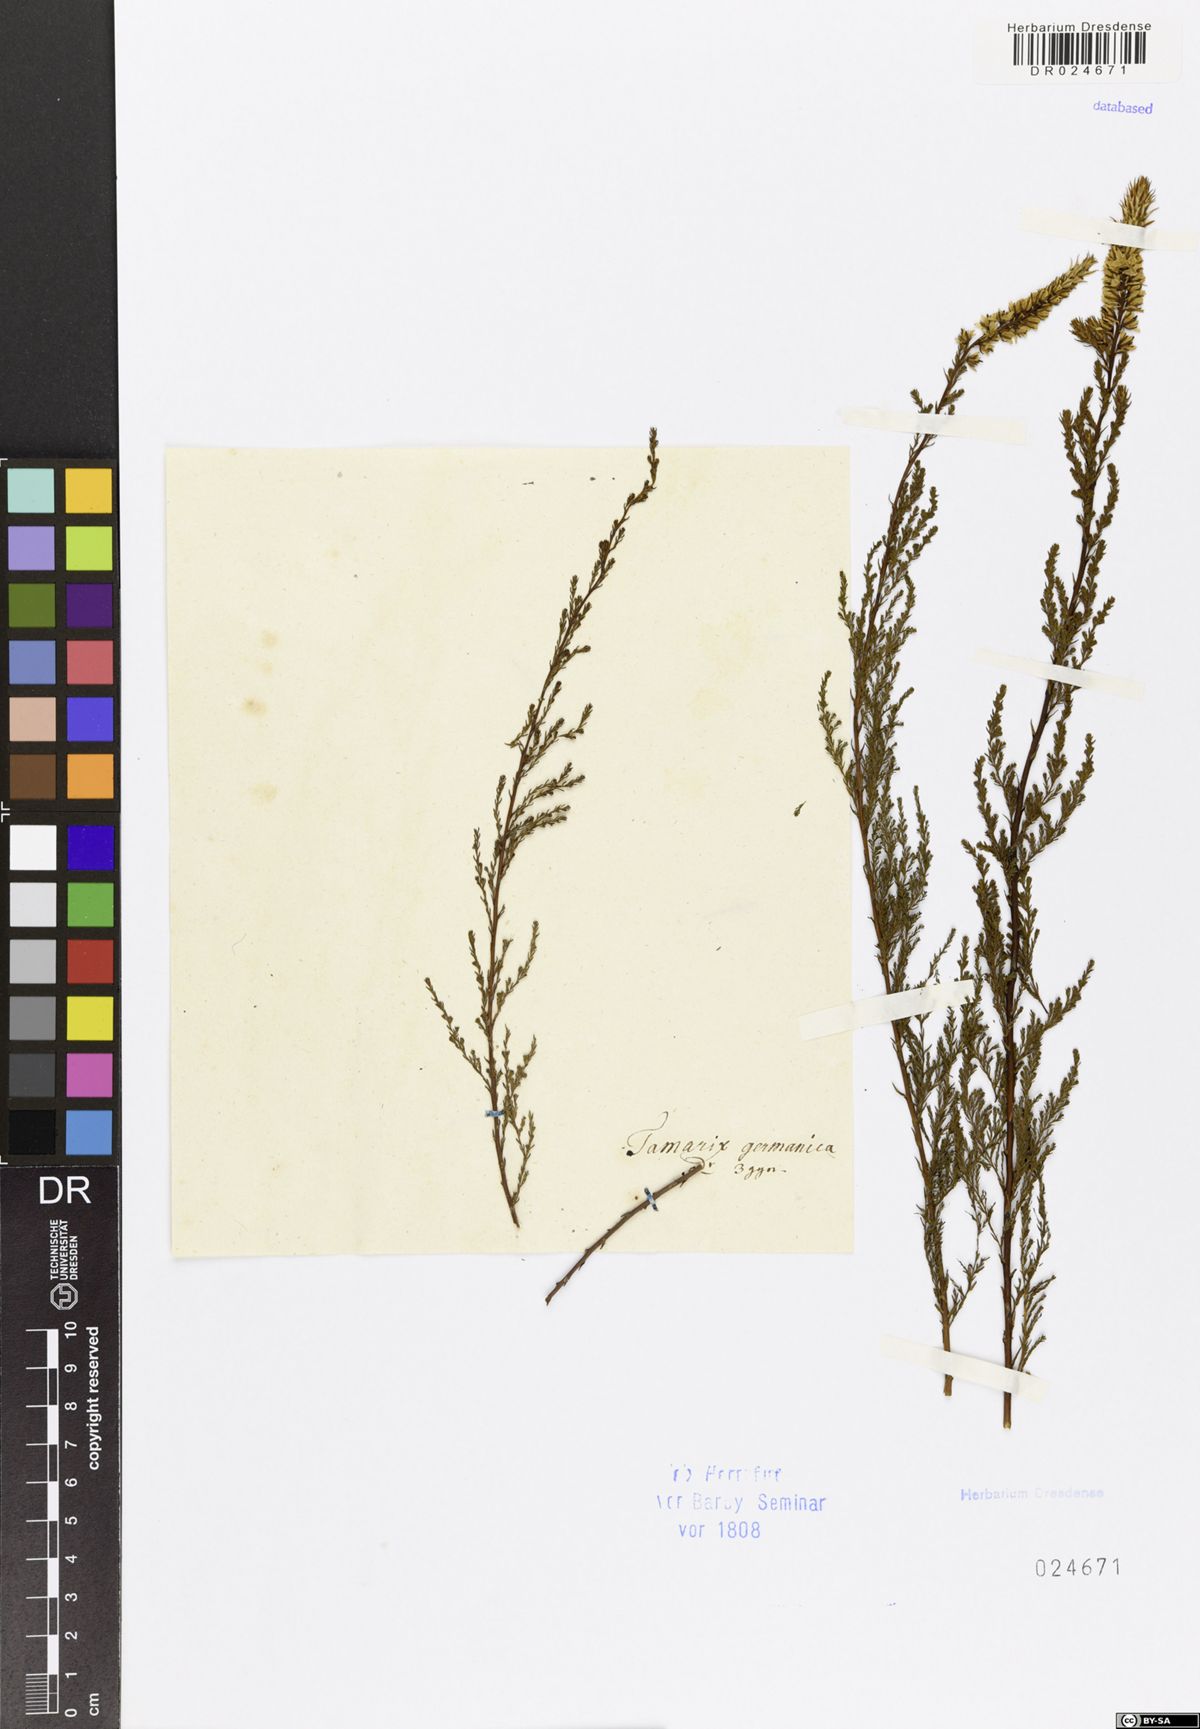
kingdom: Plantae
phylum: Tracheophyta
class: Magnoliopsida
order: Caryophyllales
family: Tamaricaceae
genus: Myricaria
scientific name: Myricaria germanica
